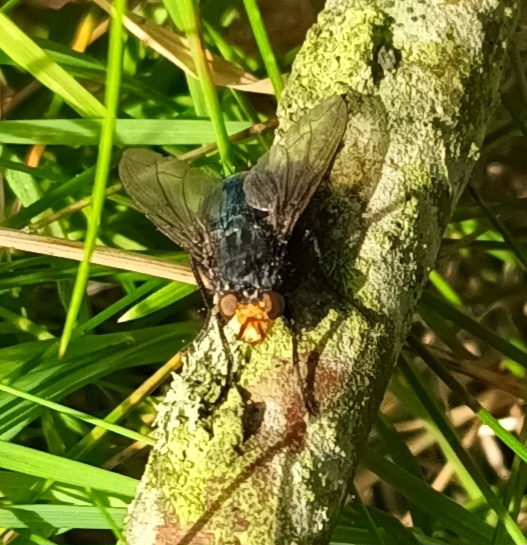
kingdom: Animalia
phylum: Arthropoda
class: Insecta
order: Diptera
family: Calliphoridae
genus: Cynomya
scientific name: Cynomya mortuorum
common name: Dødsflue
